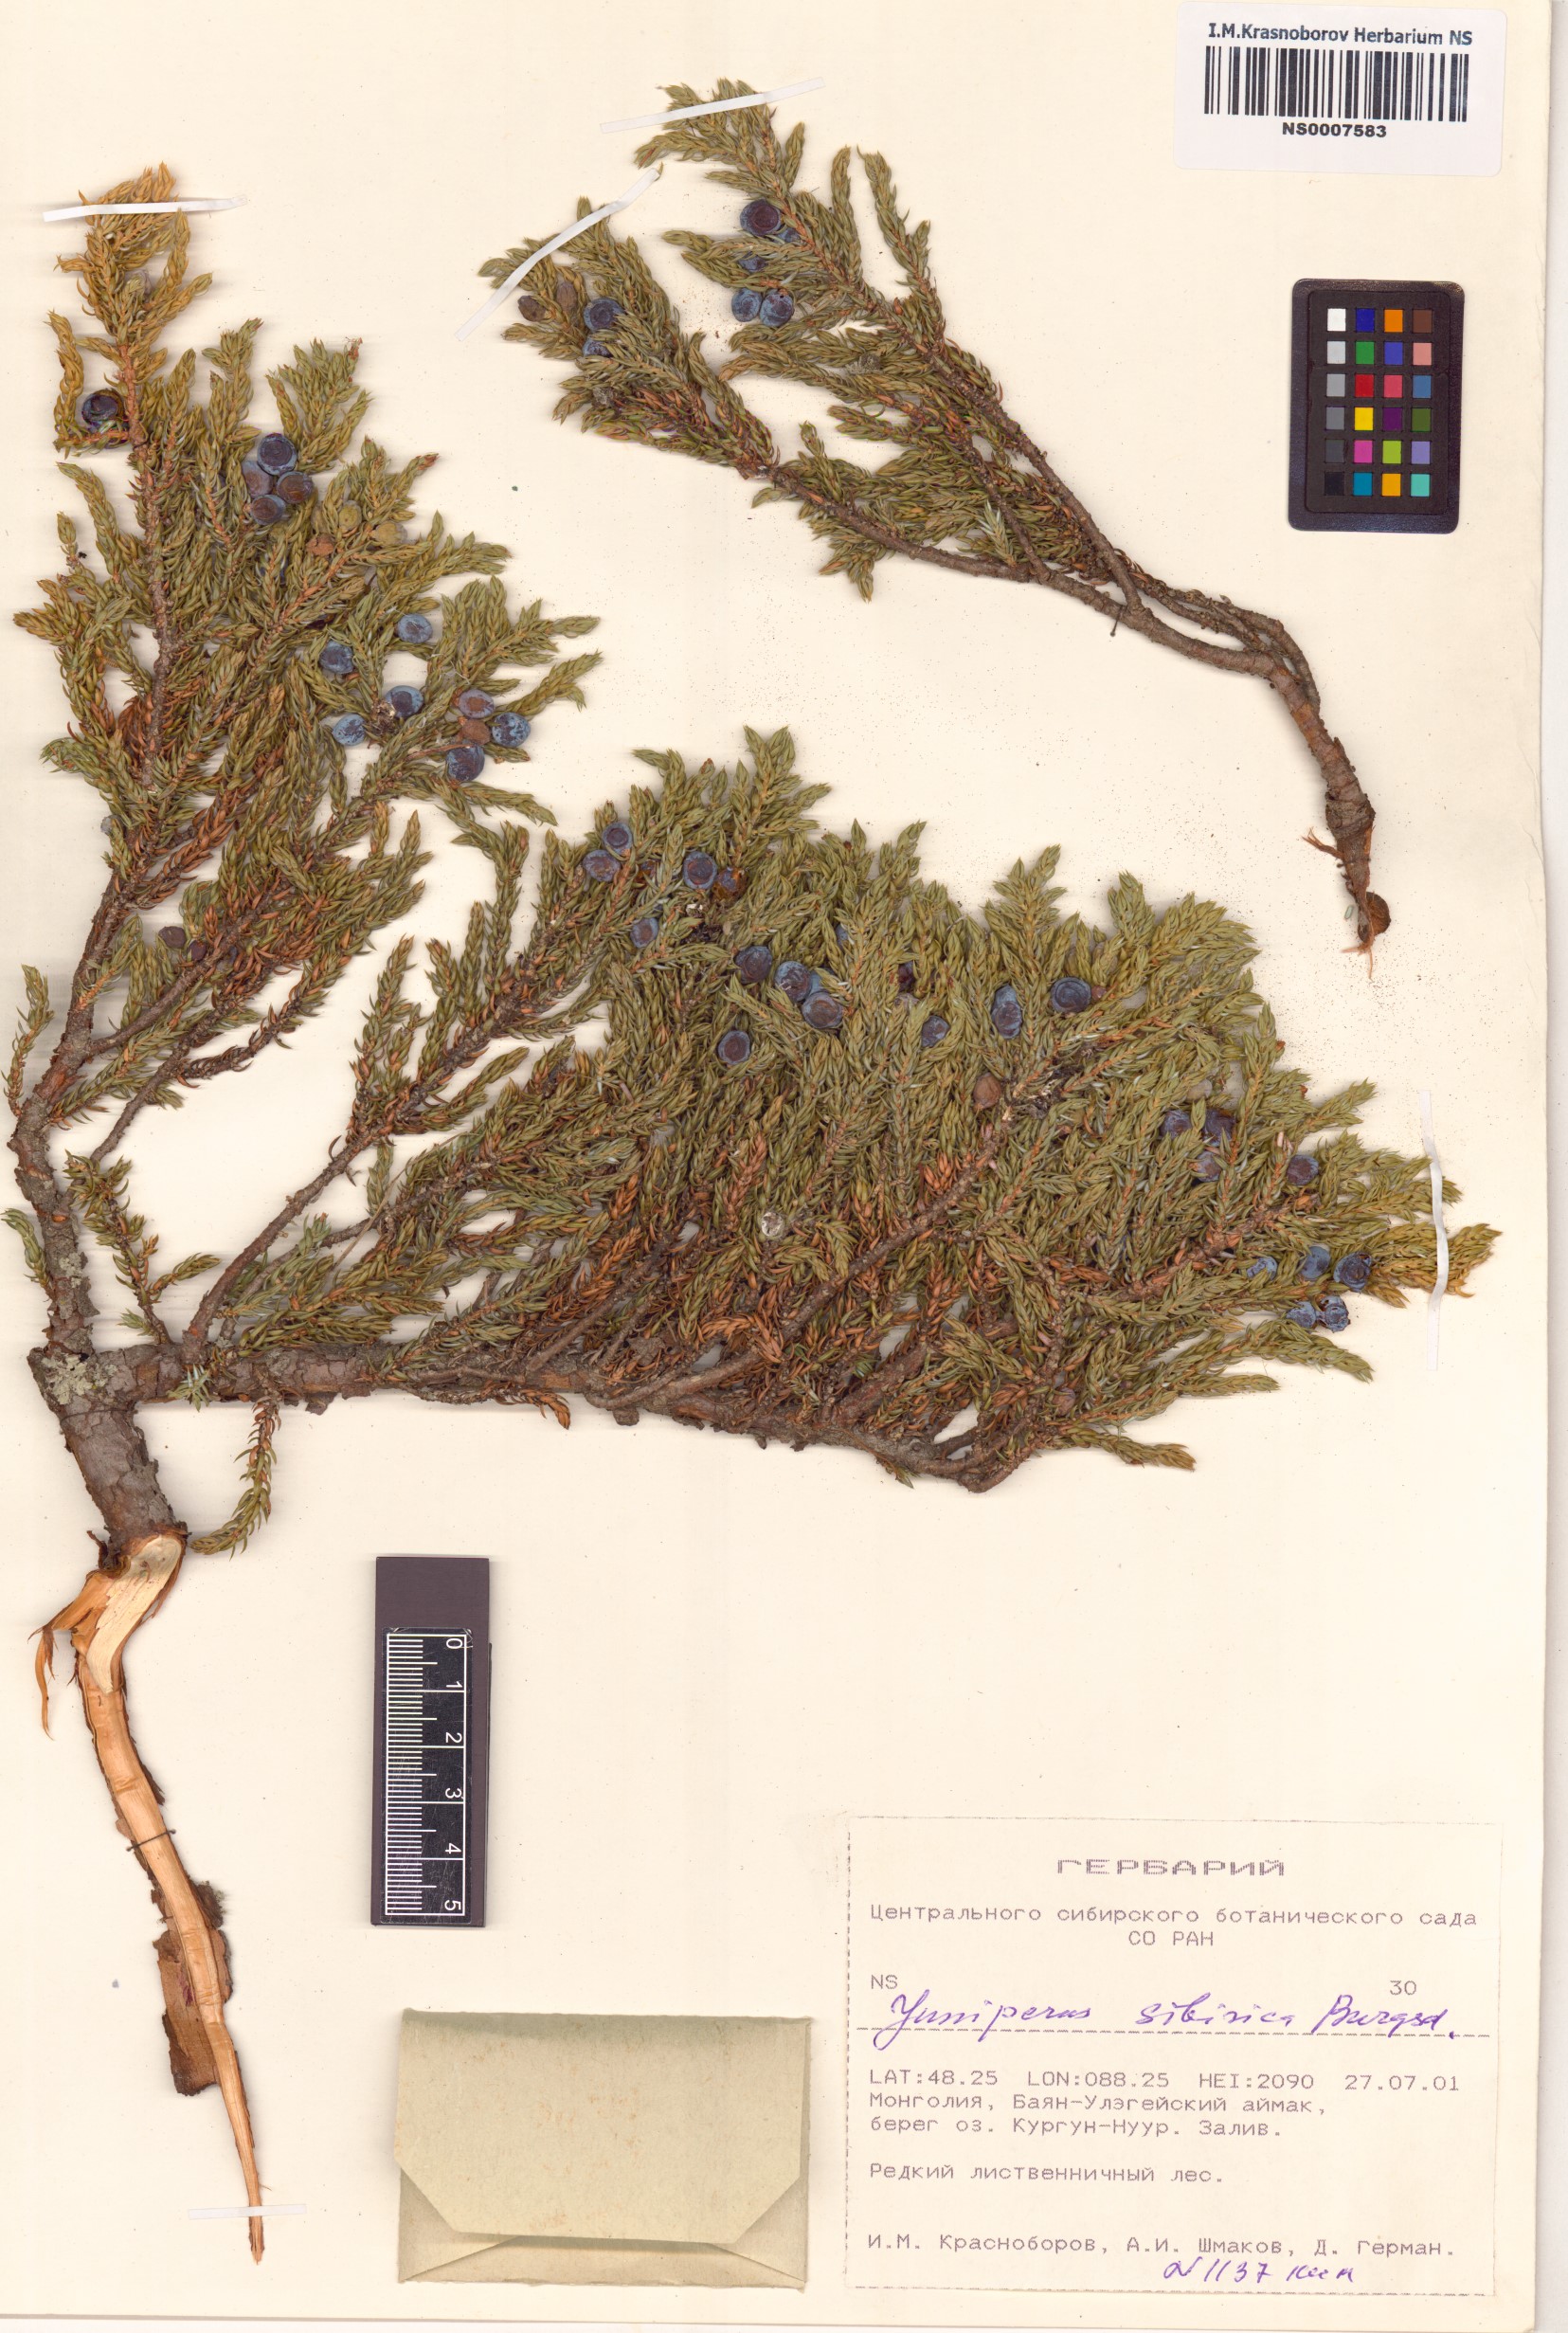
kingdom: Plantae
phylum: Tracheophyta
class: Pinopsida
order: Pinales
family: Cupressaceae
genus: Juniperus
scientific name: Juniperus communis
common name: Common juniper
